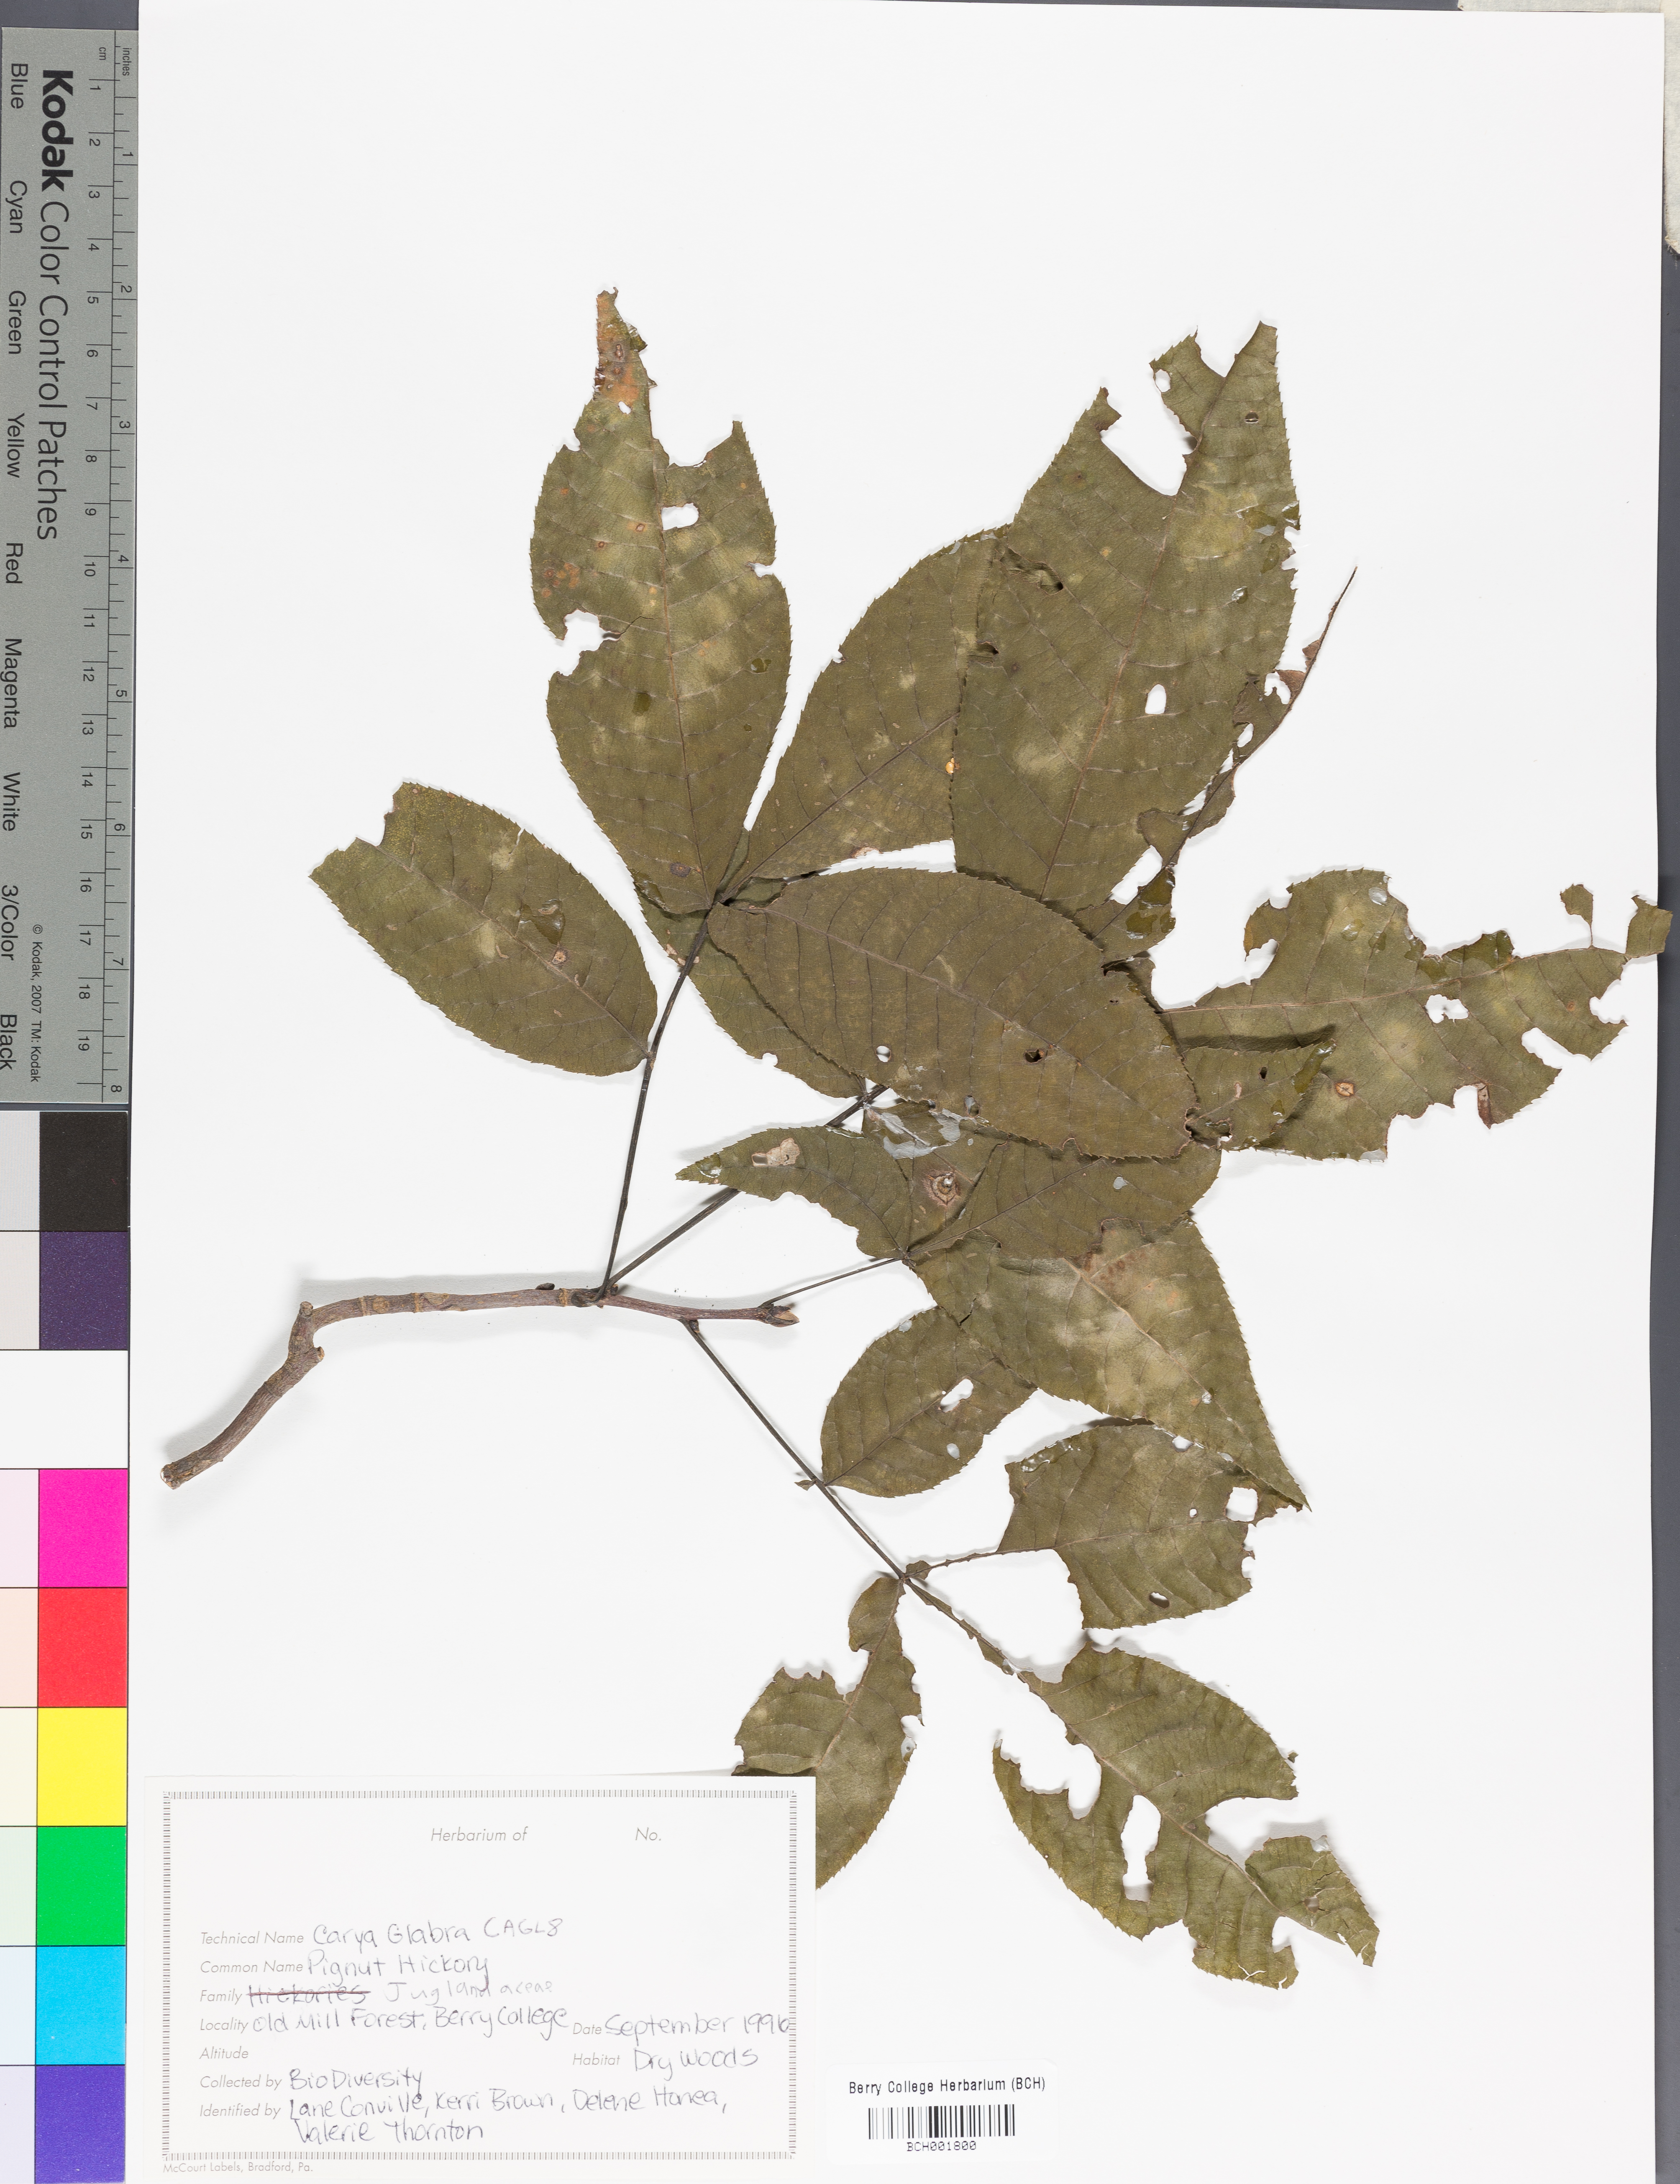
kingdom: Plantae
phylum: Tracheophyta
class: Magnoliopsida
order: Fagales
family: Juglandaceae
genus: Carya
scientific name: Carya glabra
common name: Pignut hickory
